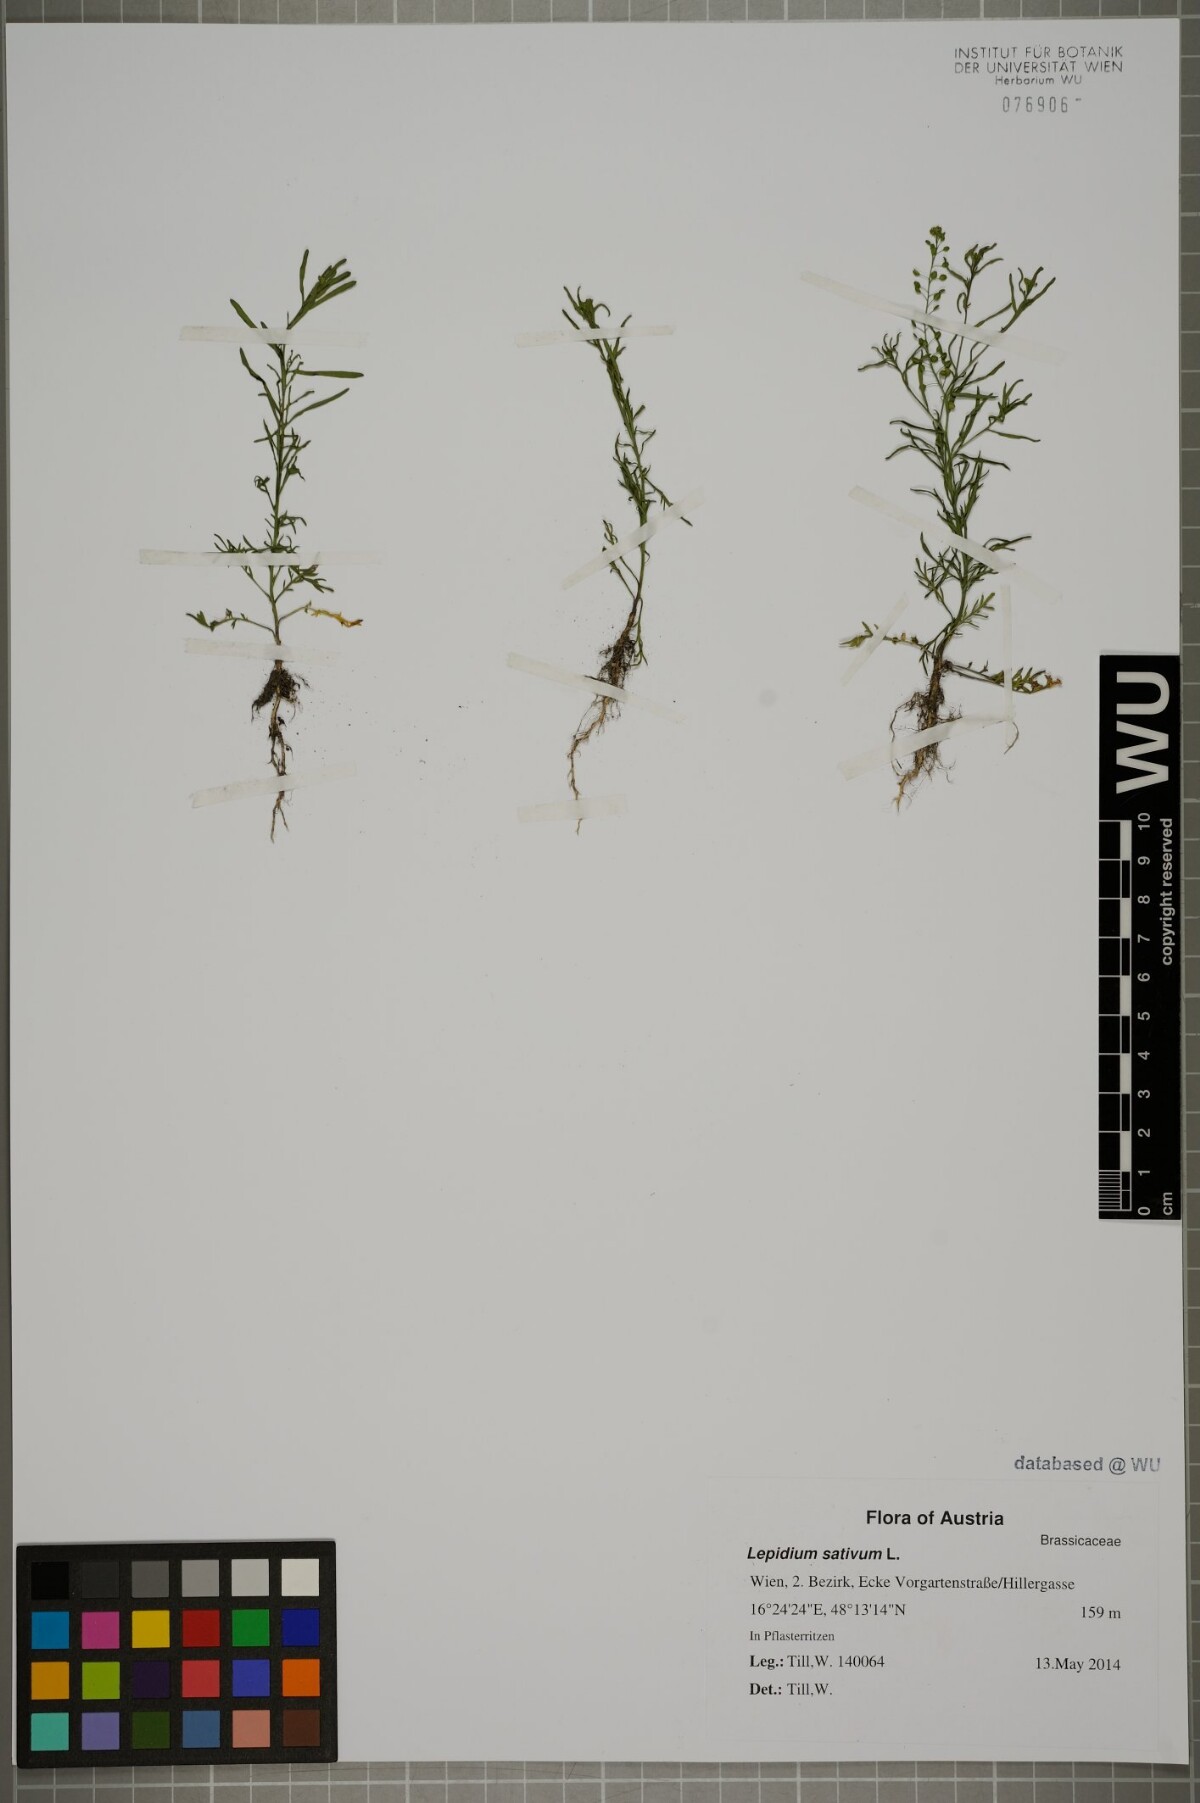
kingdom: Plantae
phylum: Tracheophyta
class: Magnoliopsida
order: Brassicales
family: Brassicaceae
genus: Lepidium
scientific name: Lepidium ruderale
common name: Narrow-leaved pepperwort
